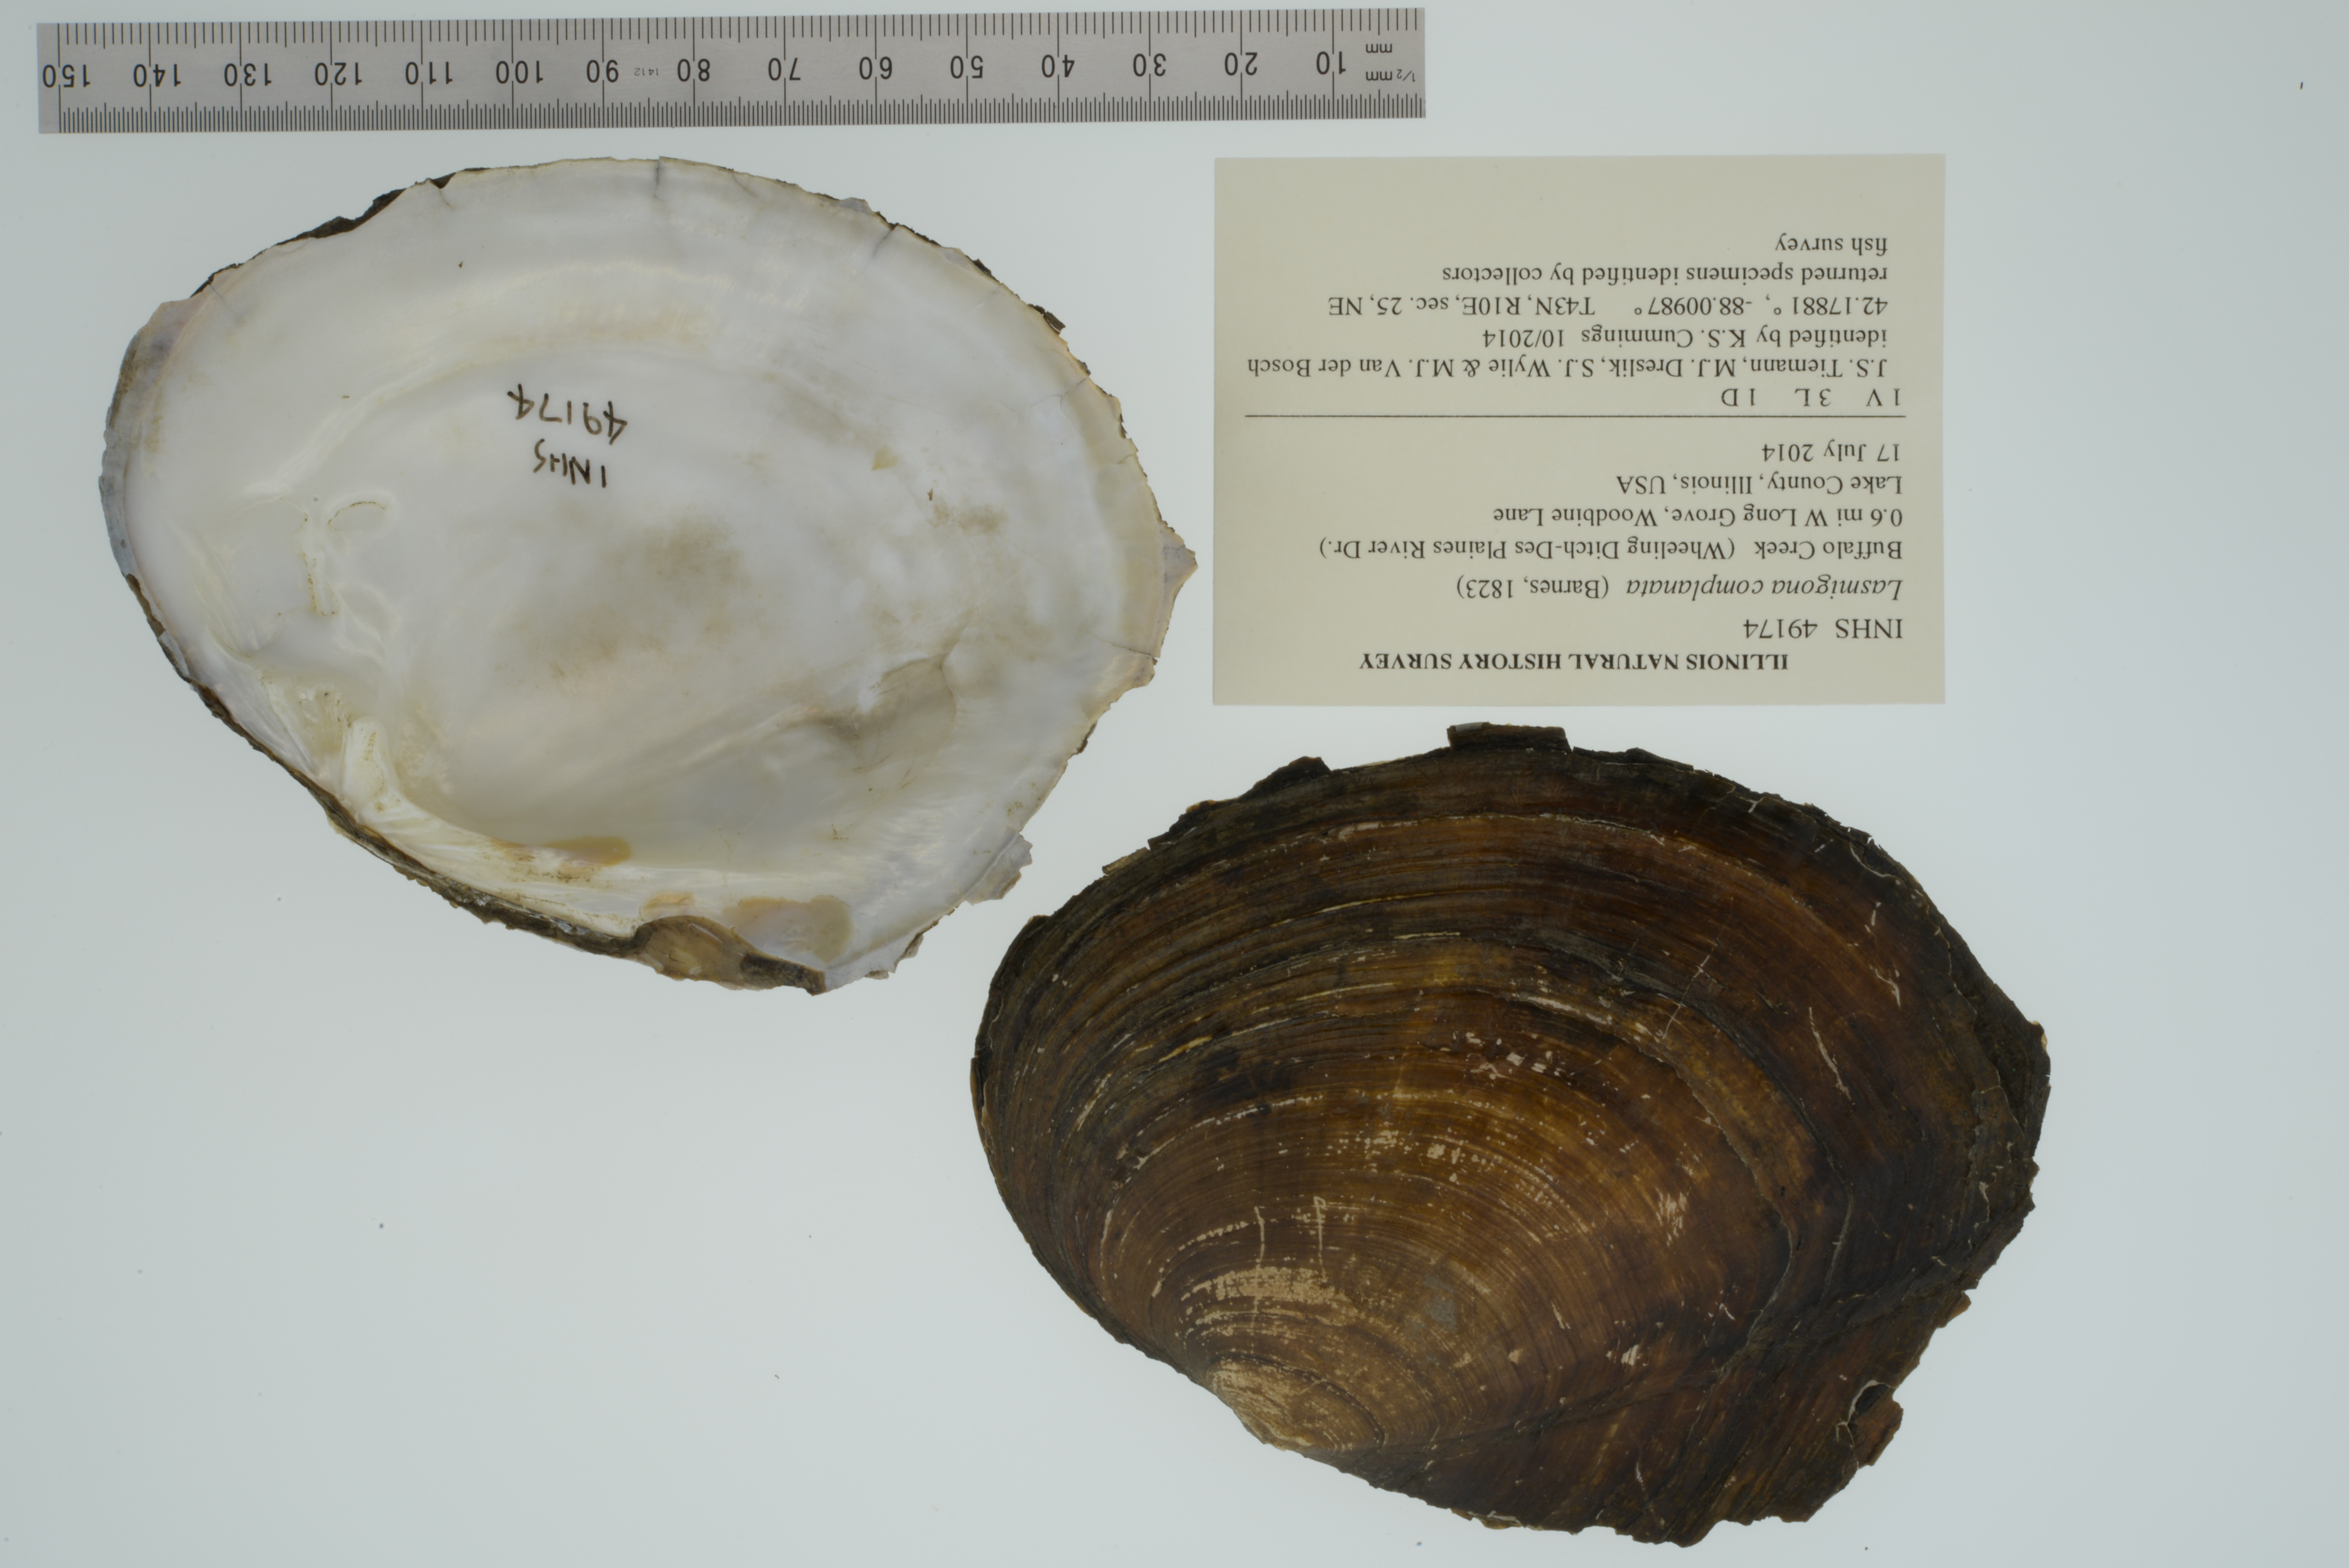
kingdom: Animalia
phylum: Mollusca
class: Bivalvia
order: Unionida
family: Unionidae
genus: Lasmigona
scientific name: Lasmigona complanata
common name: White heelsplitter
